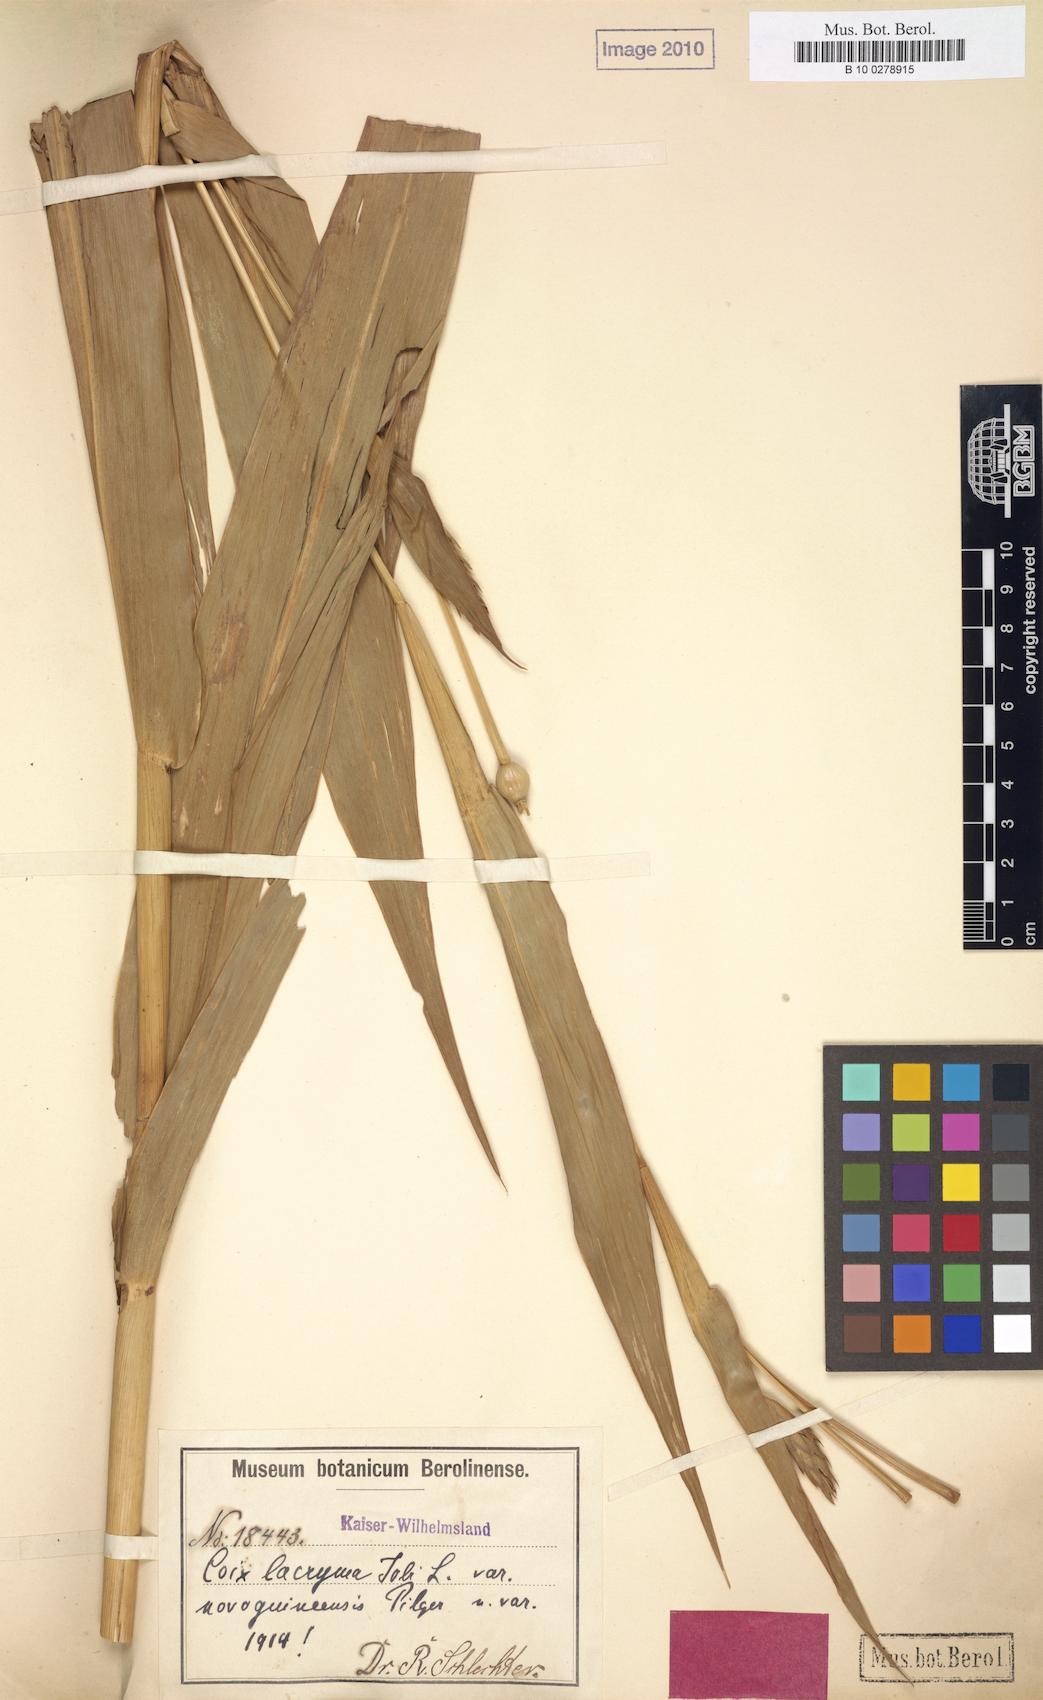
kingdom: Plantae
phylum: Tracheophyta
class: Liliopsida
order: Poales
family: Poaceae
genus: Coix
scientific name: Coix lacryma-jobi
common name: Job's tears
